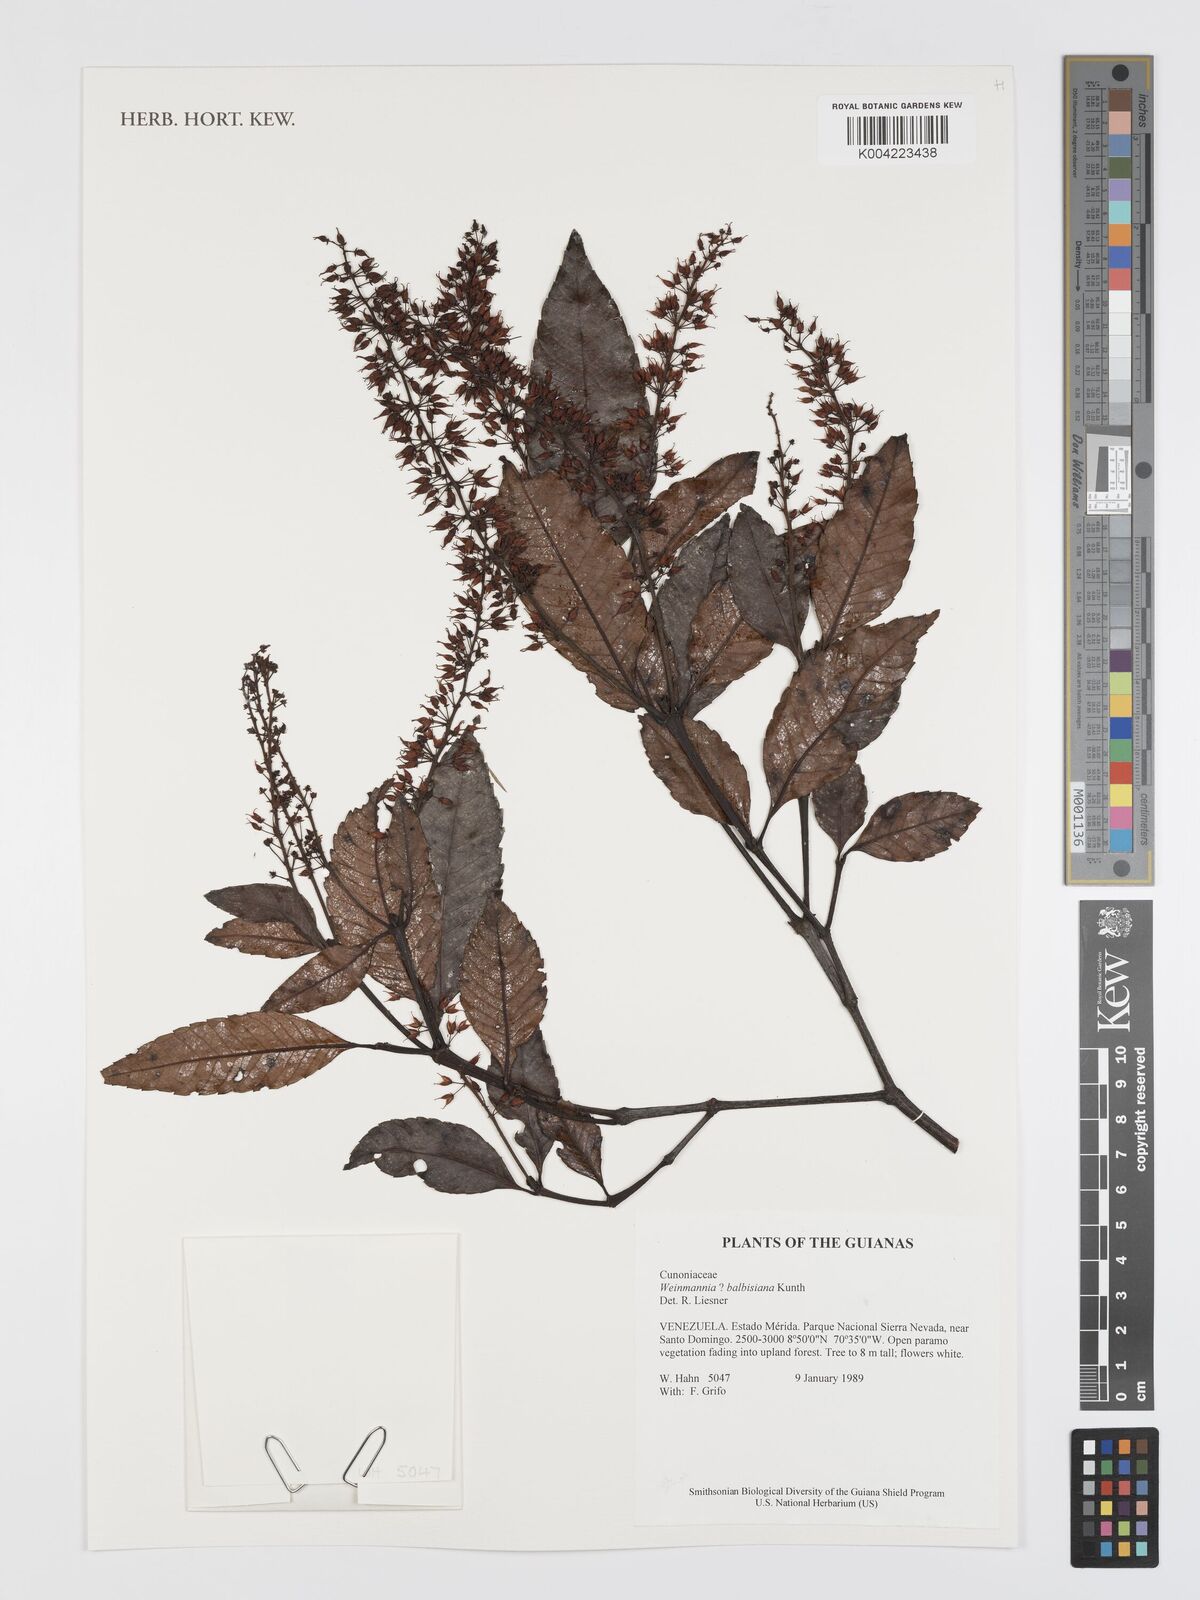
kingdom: Plantae
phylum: Tracheophyta
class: Magnoliopsida
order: Oxalidales
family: Cunoniaceae
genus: Weinmannia
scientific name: Weinmannia balbisana
